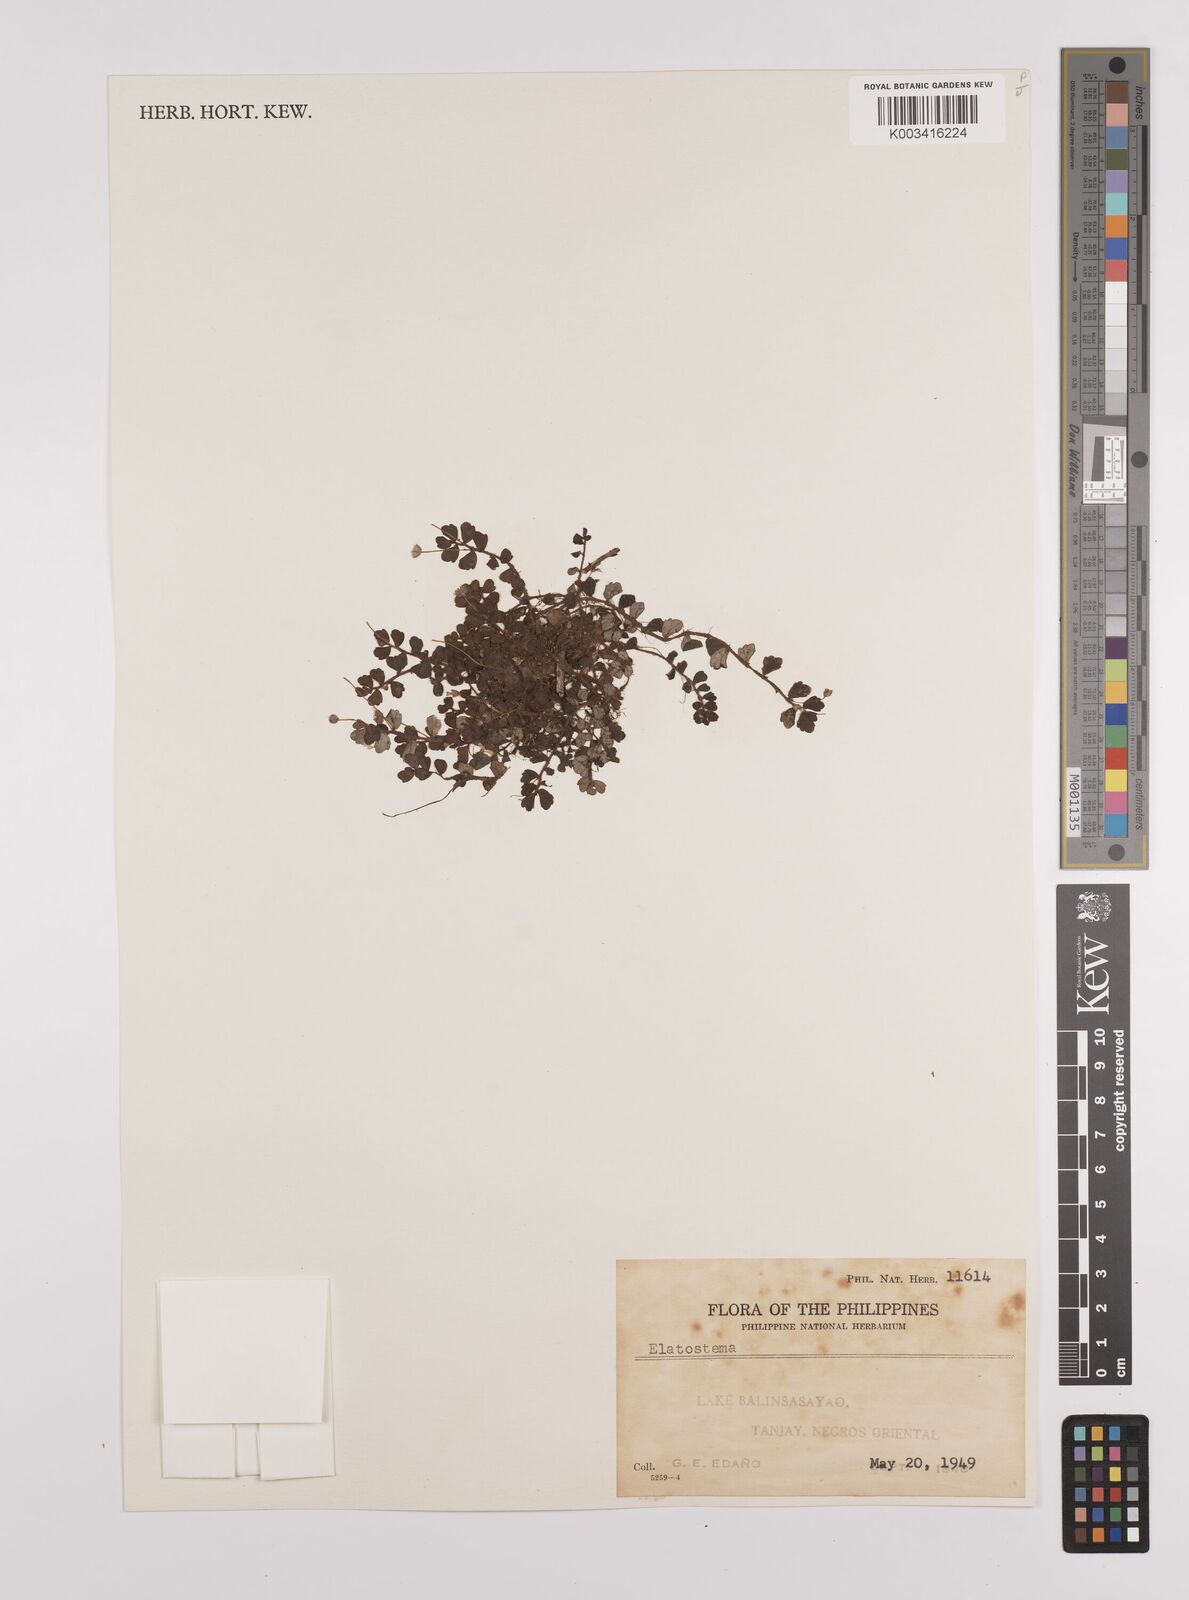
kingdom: Plantae
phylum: Tracheophyta
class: Magnoliopsida
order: Rosales
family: Urticaceae
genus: Elatostema
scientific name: Elatostema
